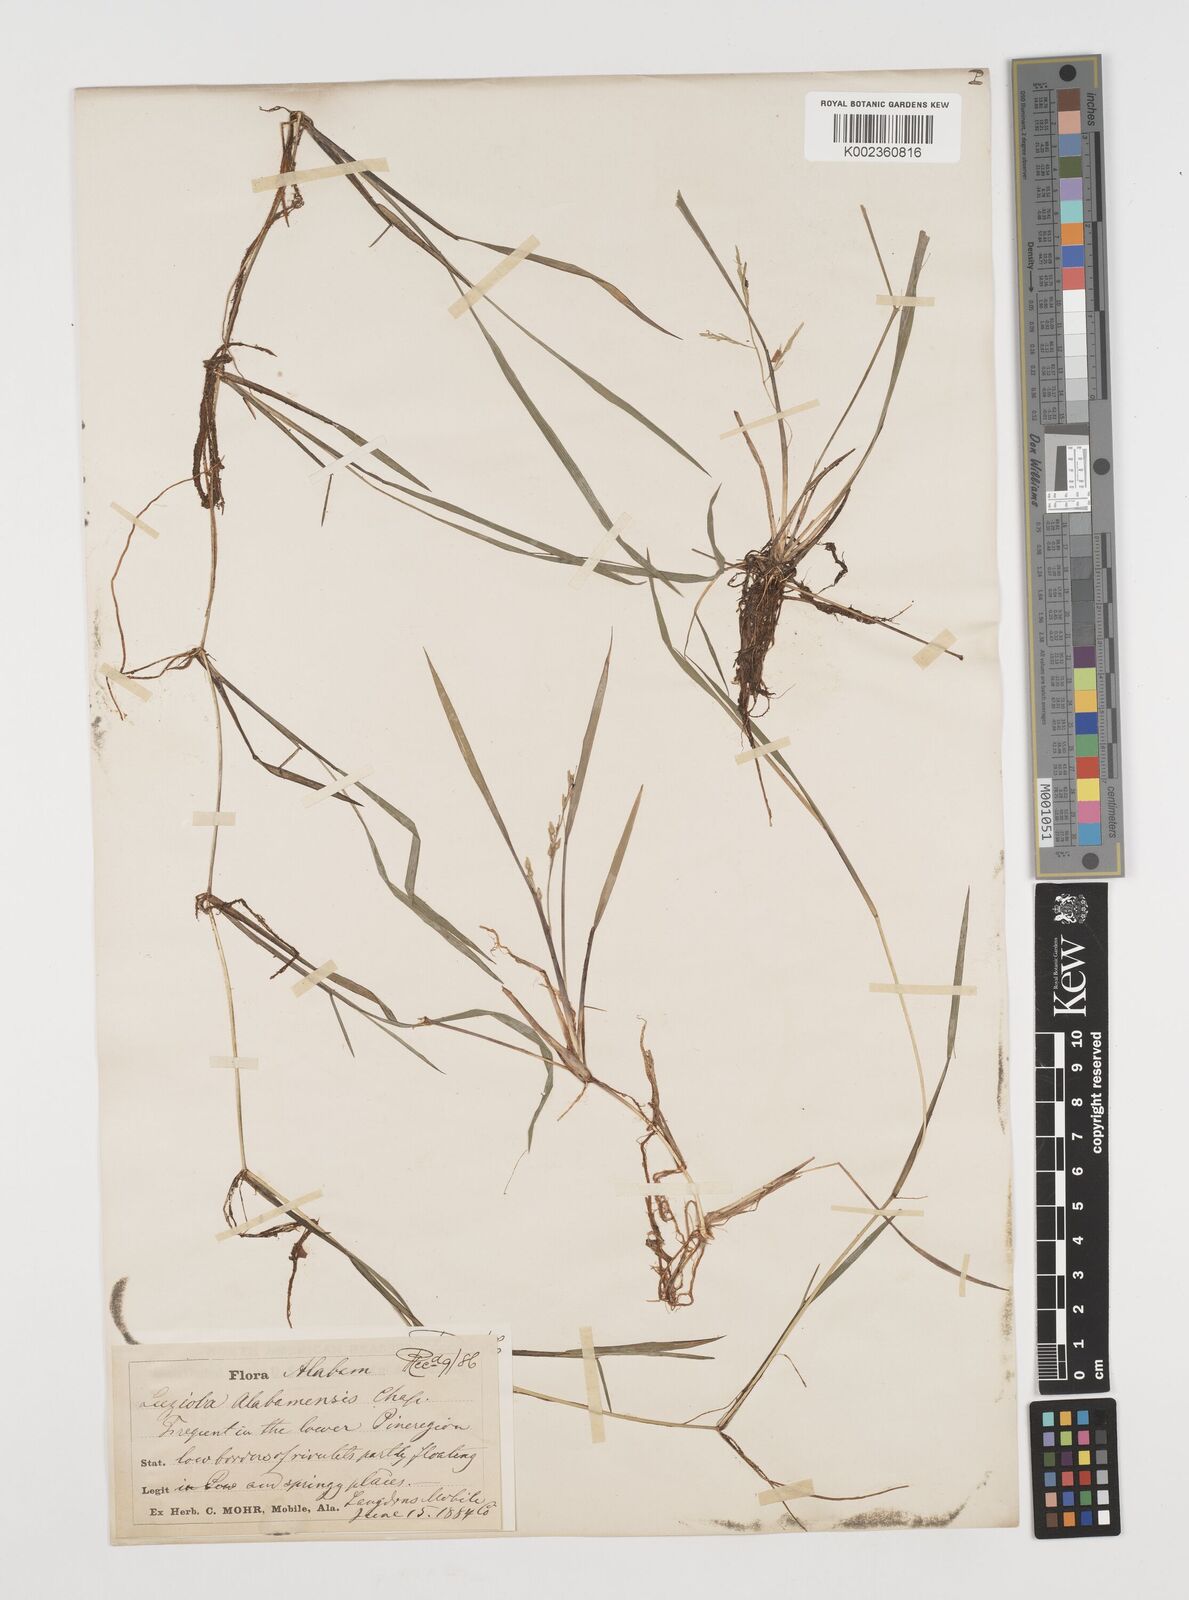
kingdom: Plantae
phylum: Tracheophyta
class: Liliopsida
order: Poales
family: Poaceae
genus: Luziola
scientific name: Luziola bahiensis
